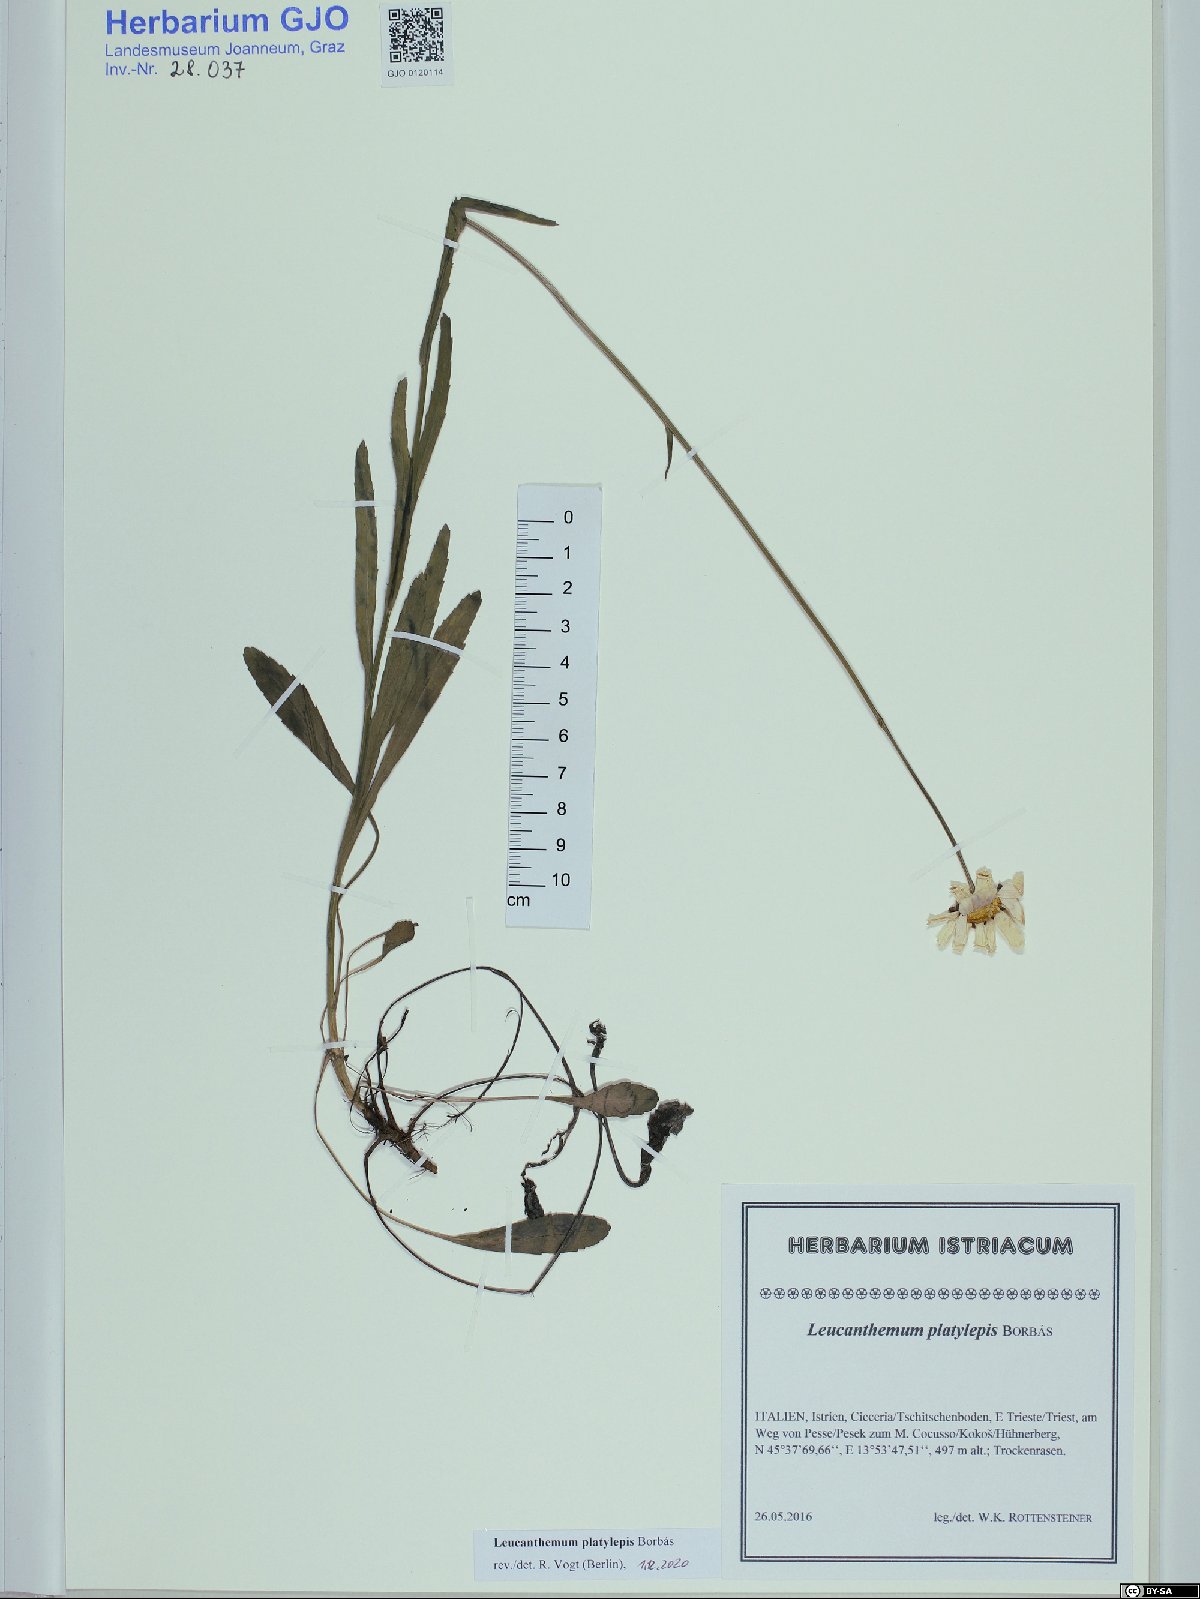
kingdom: Plantae
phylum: Tracheophyta
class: Magnoliopsida
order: Asterales
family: Asteraceae
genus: Leucanthemum
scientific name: Leucanthemum platylepis
